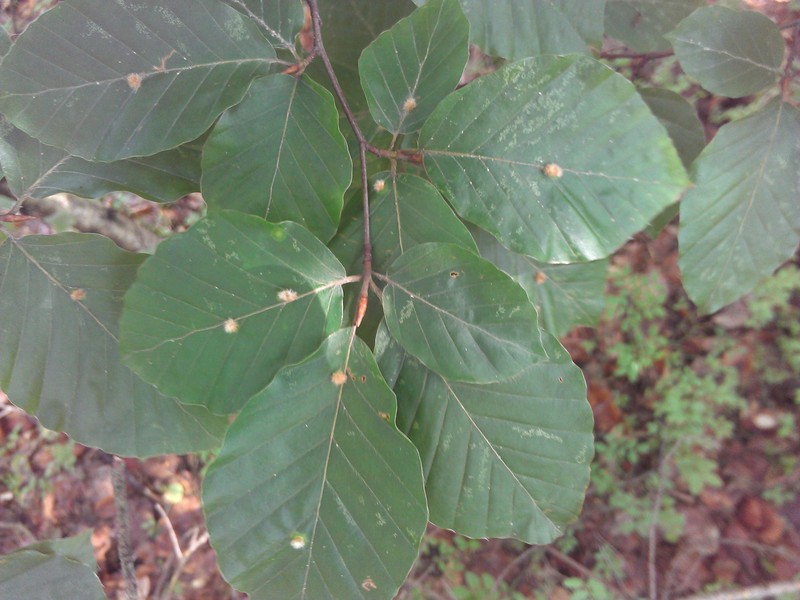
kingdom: Animalia
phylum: Arthropoda
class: Insecta
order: Diptera
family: Cecidomyiidae
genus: Hartigiola
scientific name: Hartigiola annulipes
